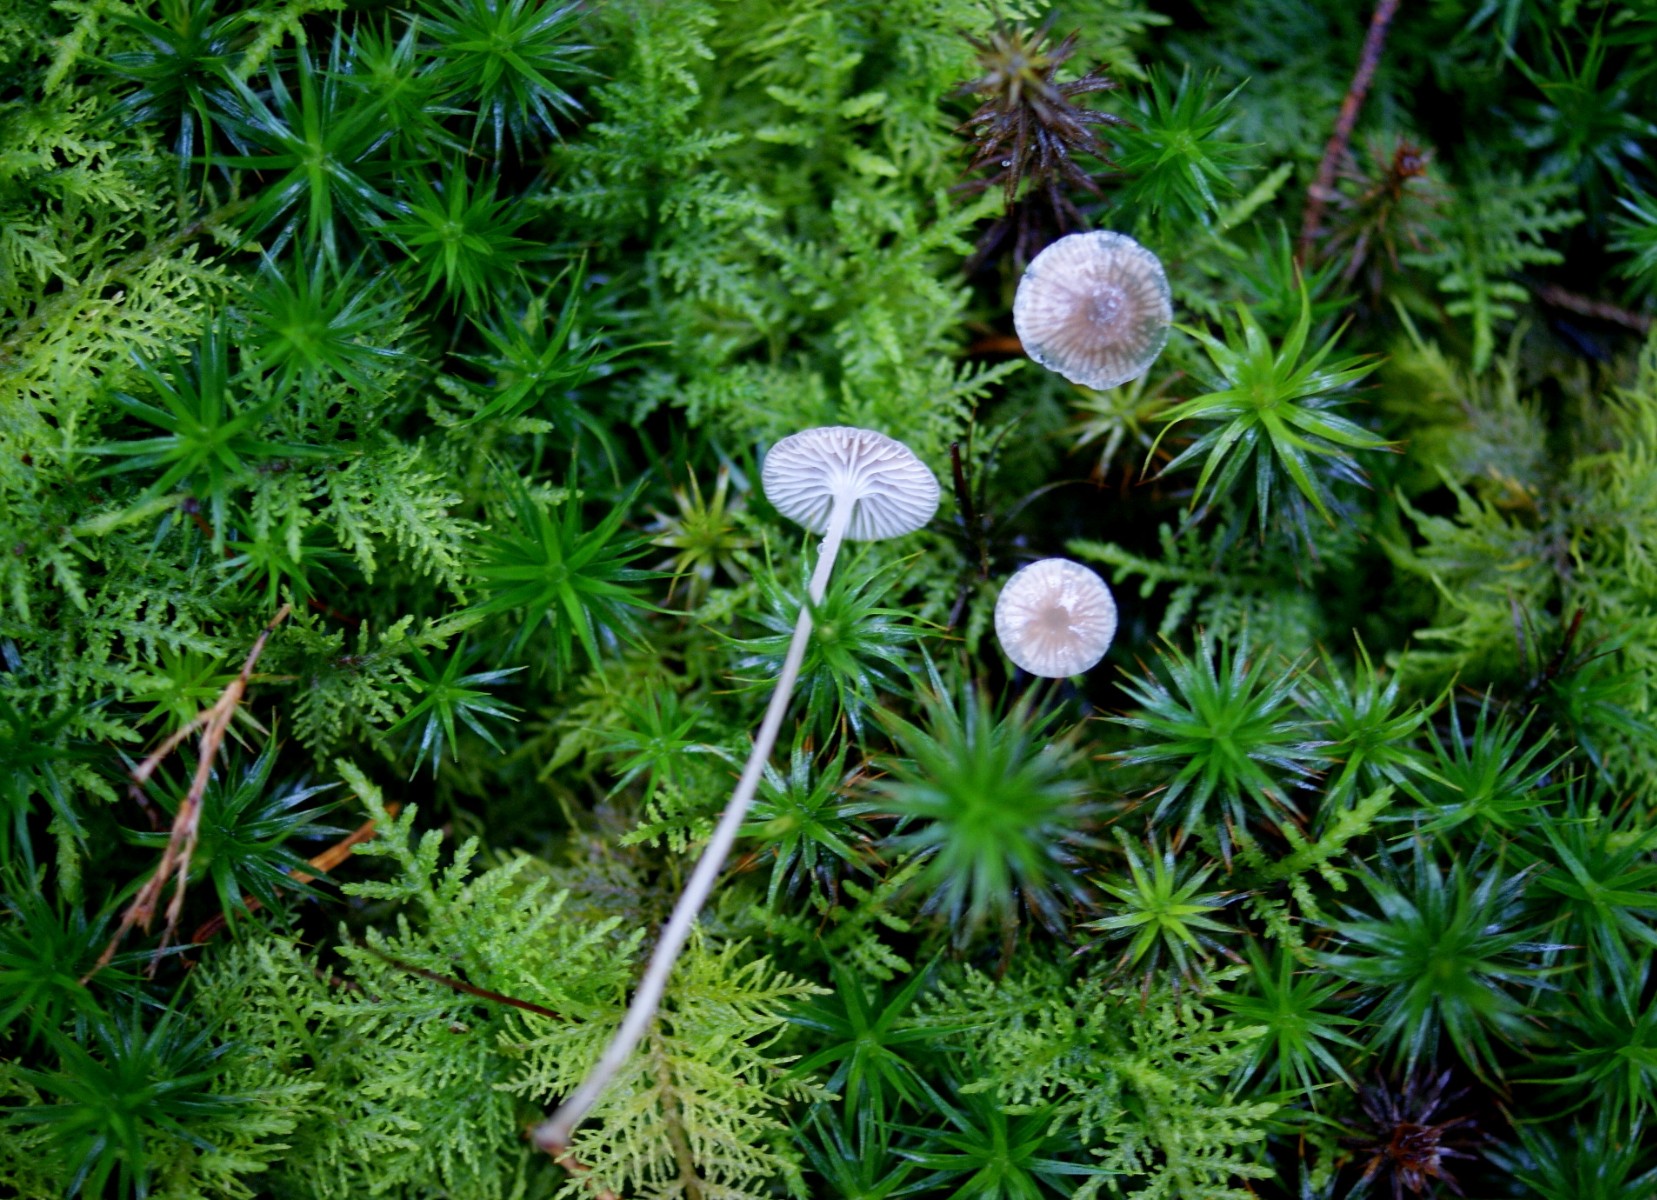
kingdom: Fungi
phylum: Basidiomycota
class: Agaricomycetes
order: Agaricales
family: Mycenaceae
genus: Mycena
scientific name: Mycena cinerella
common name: mel-huesvamp
